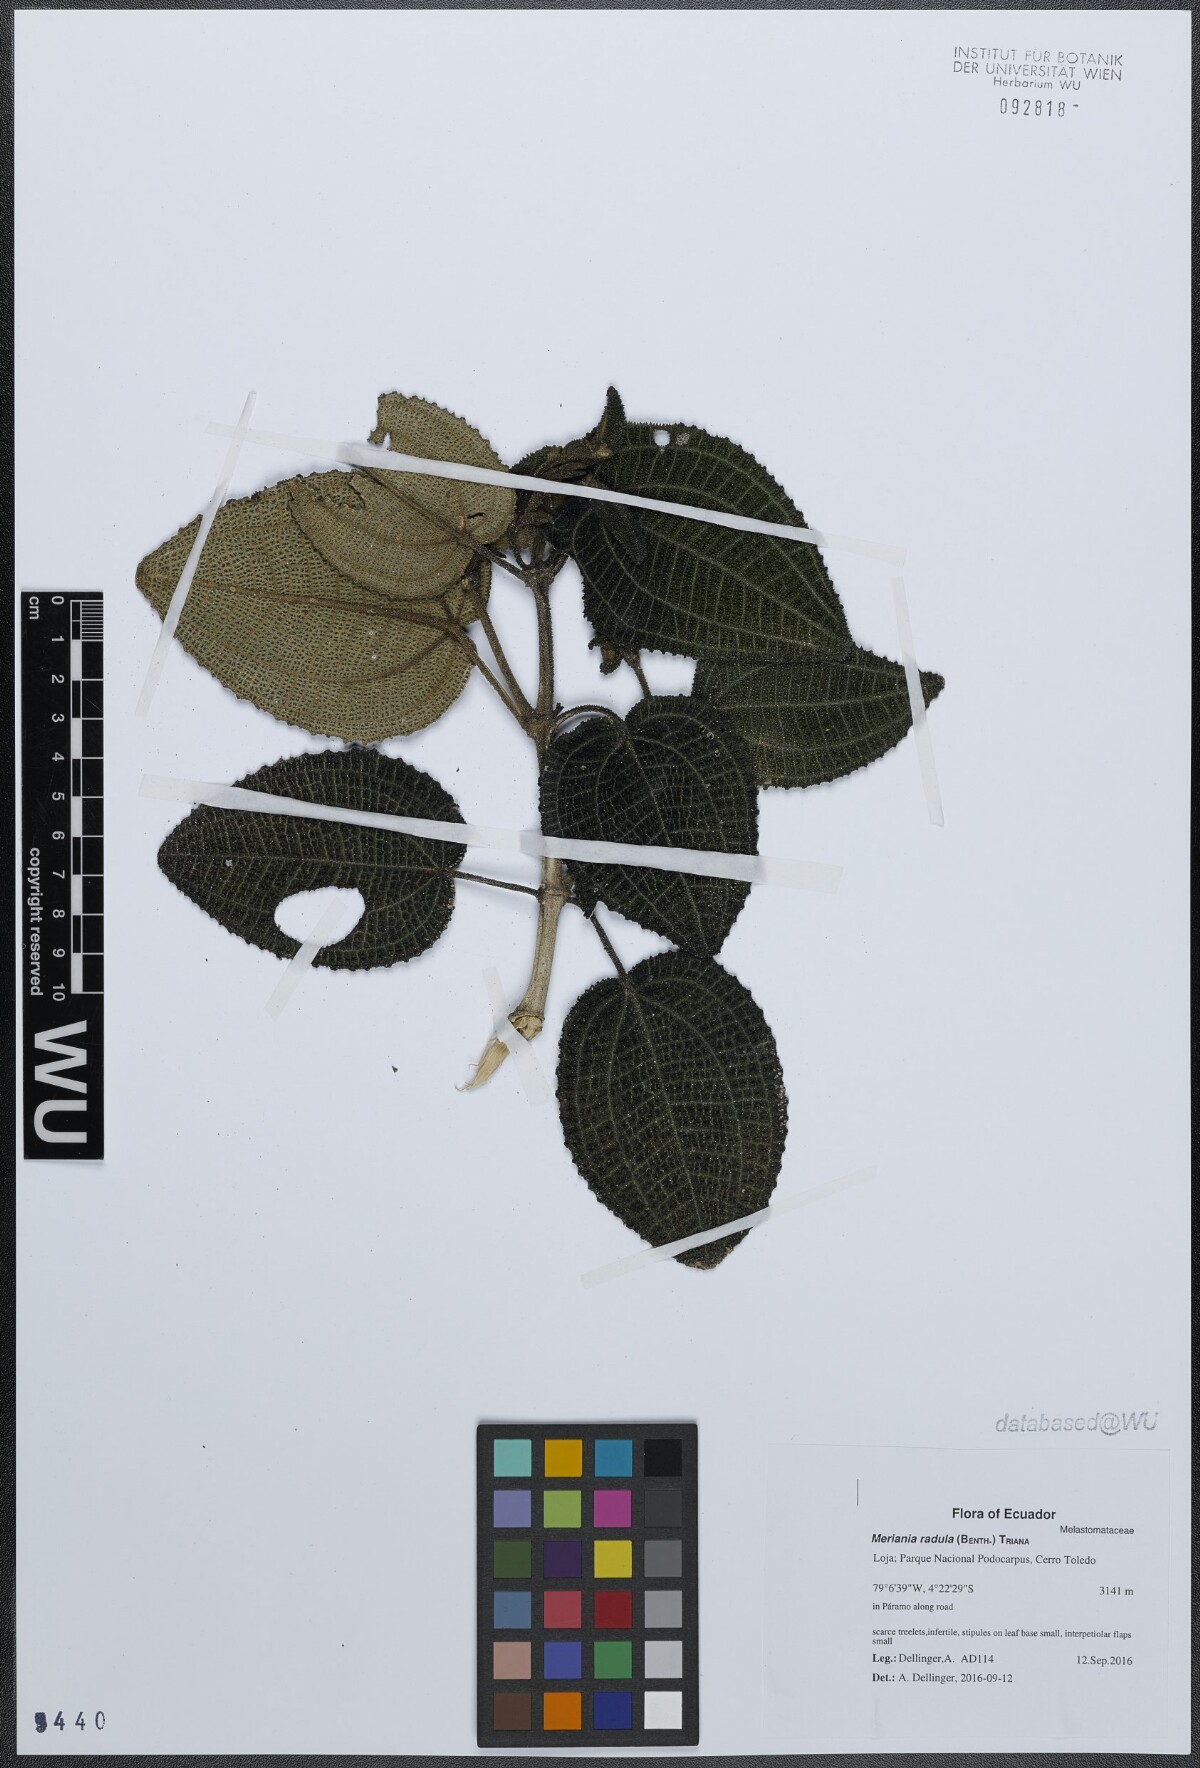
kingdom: Plantae
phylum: Tracheophyta
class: Magnoliopsida
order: Myrtales
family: Melastomataceae
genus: Meriania
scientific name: Meriania radula
